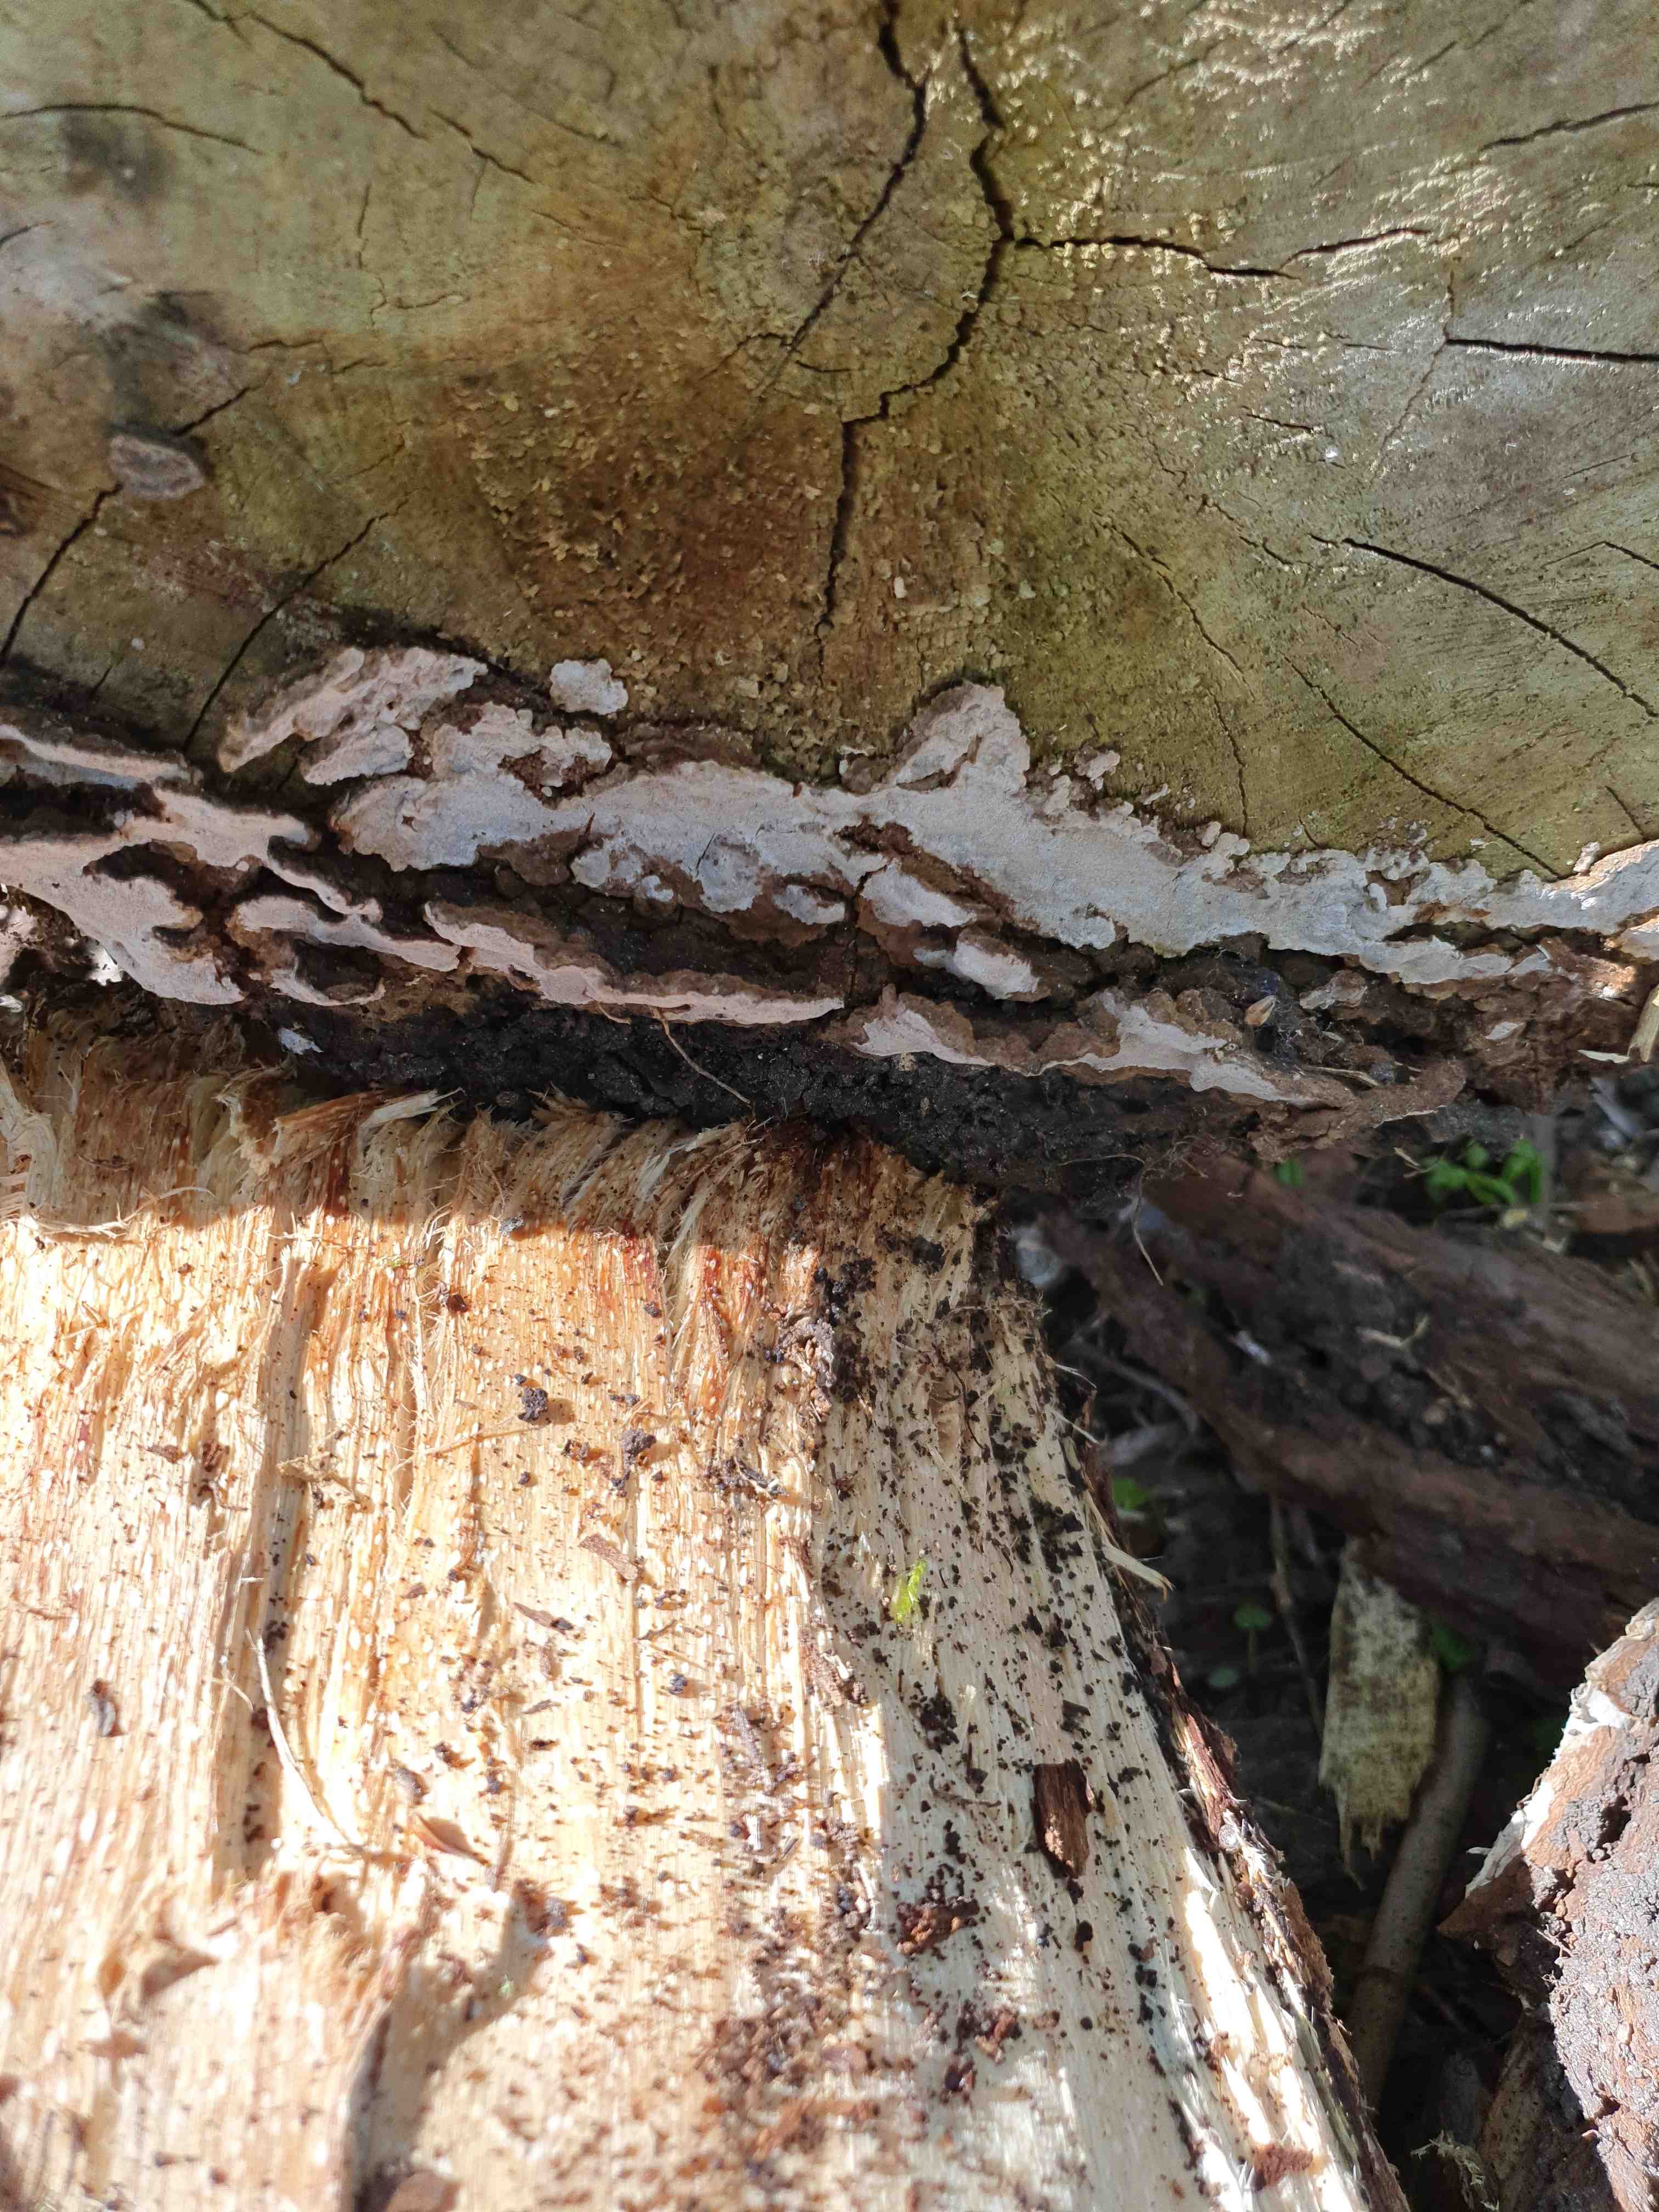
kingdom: Fungi
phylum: Basidiomycota
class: Agaricomycetes
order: Hymenochaetales
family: Hymenochaetaceae
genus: Phellinopsis
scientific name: Phellinopsis conchata
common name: pile-ildporesvamp
